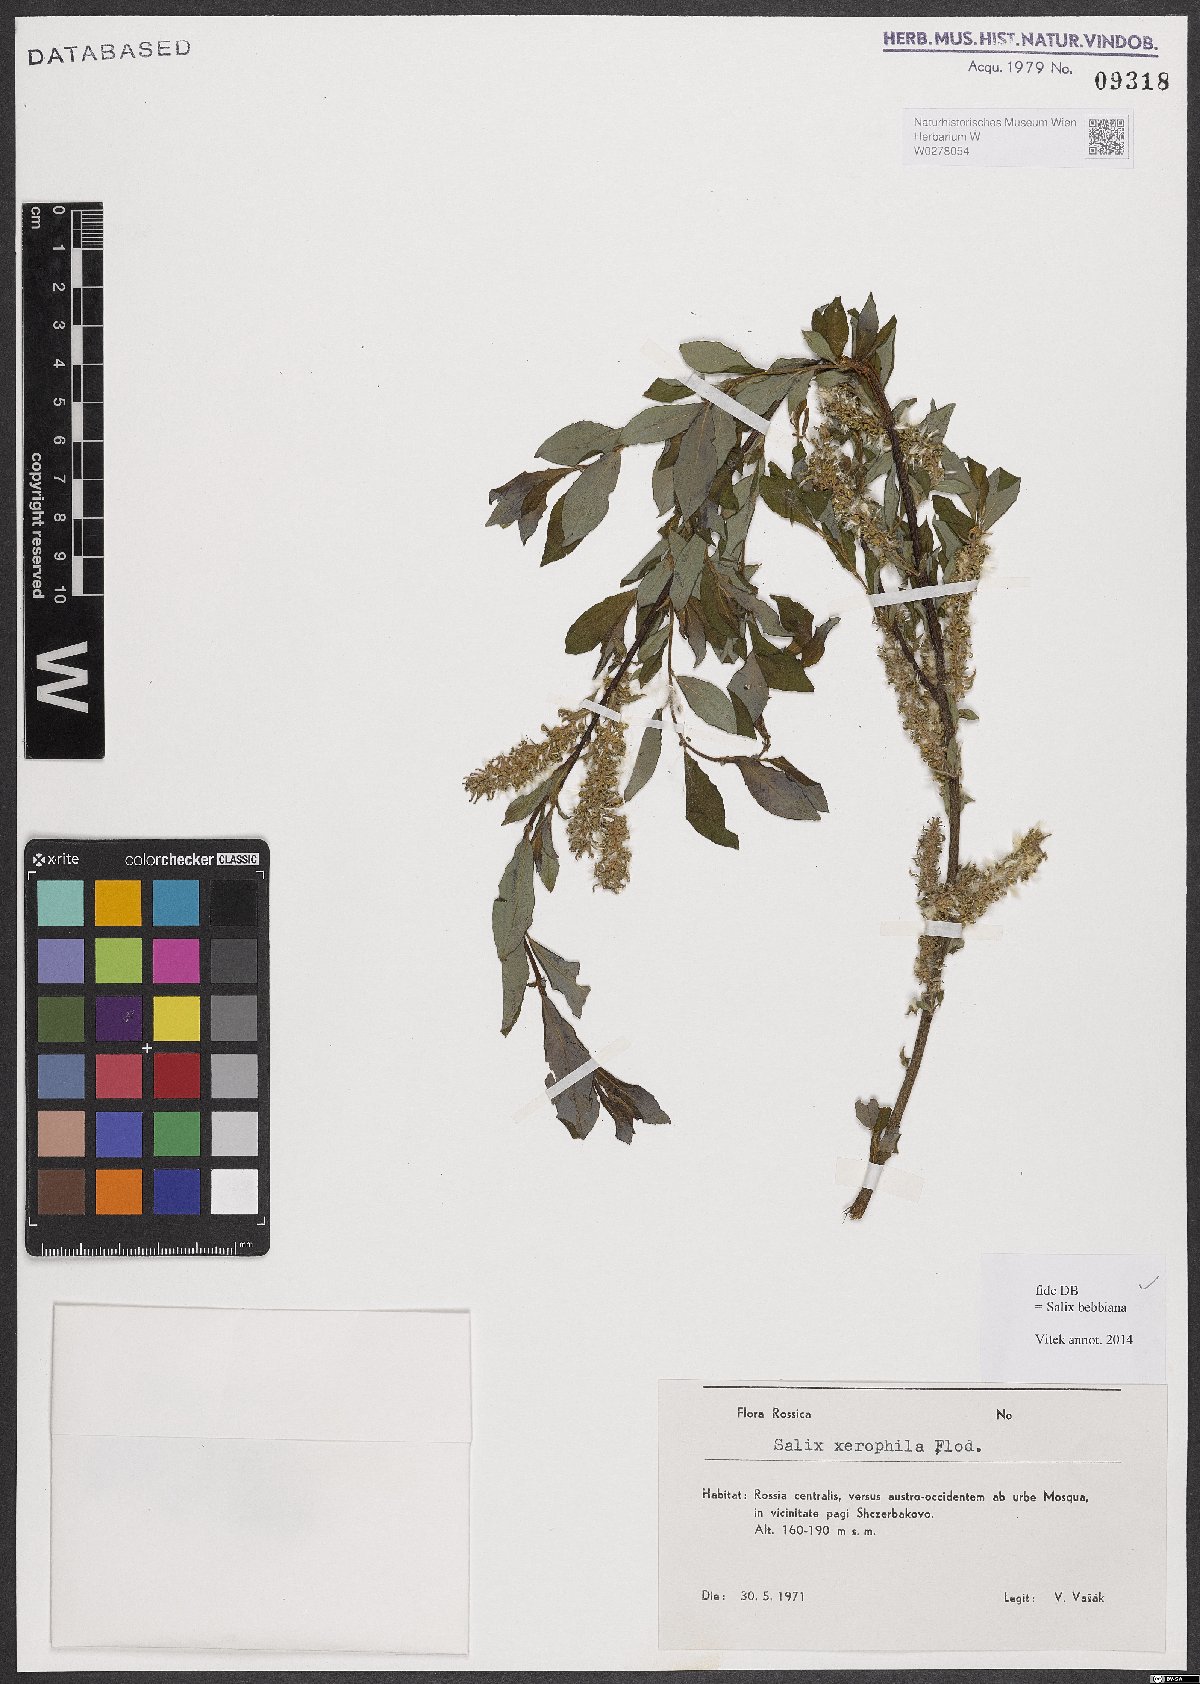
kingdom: Plantae
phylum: Tracheophyta
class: Magnoliopsida
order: Malpighiales
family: Salicaceae
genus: Salix
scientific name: Salix bebbiana
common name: Bebb's willow
